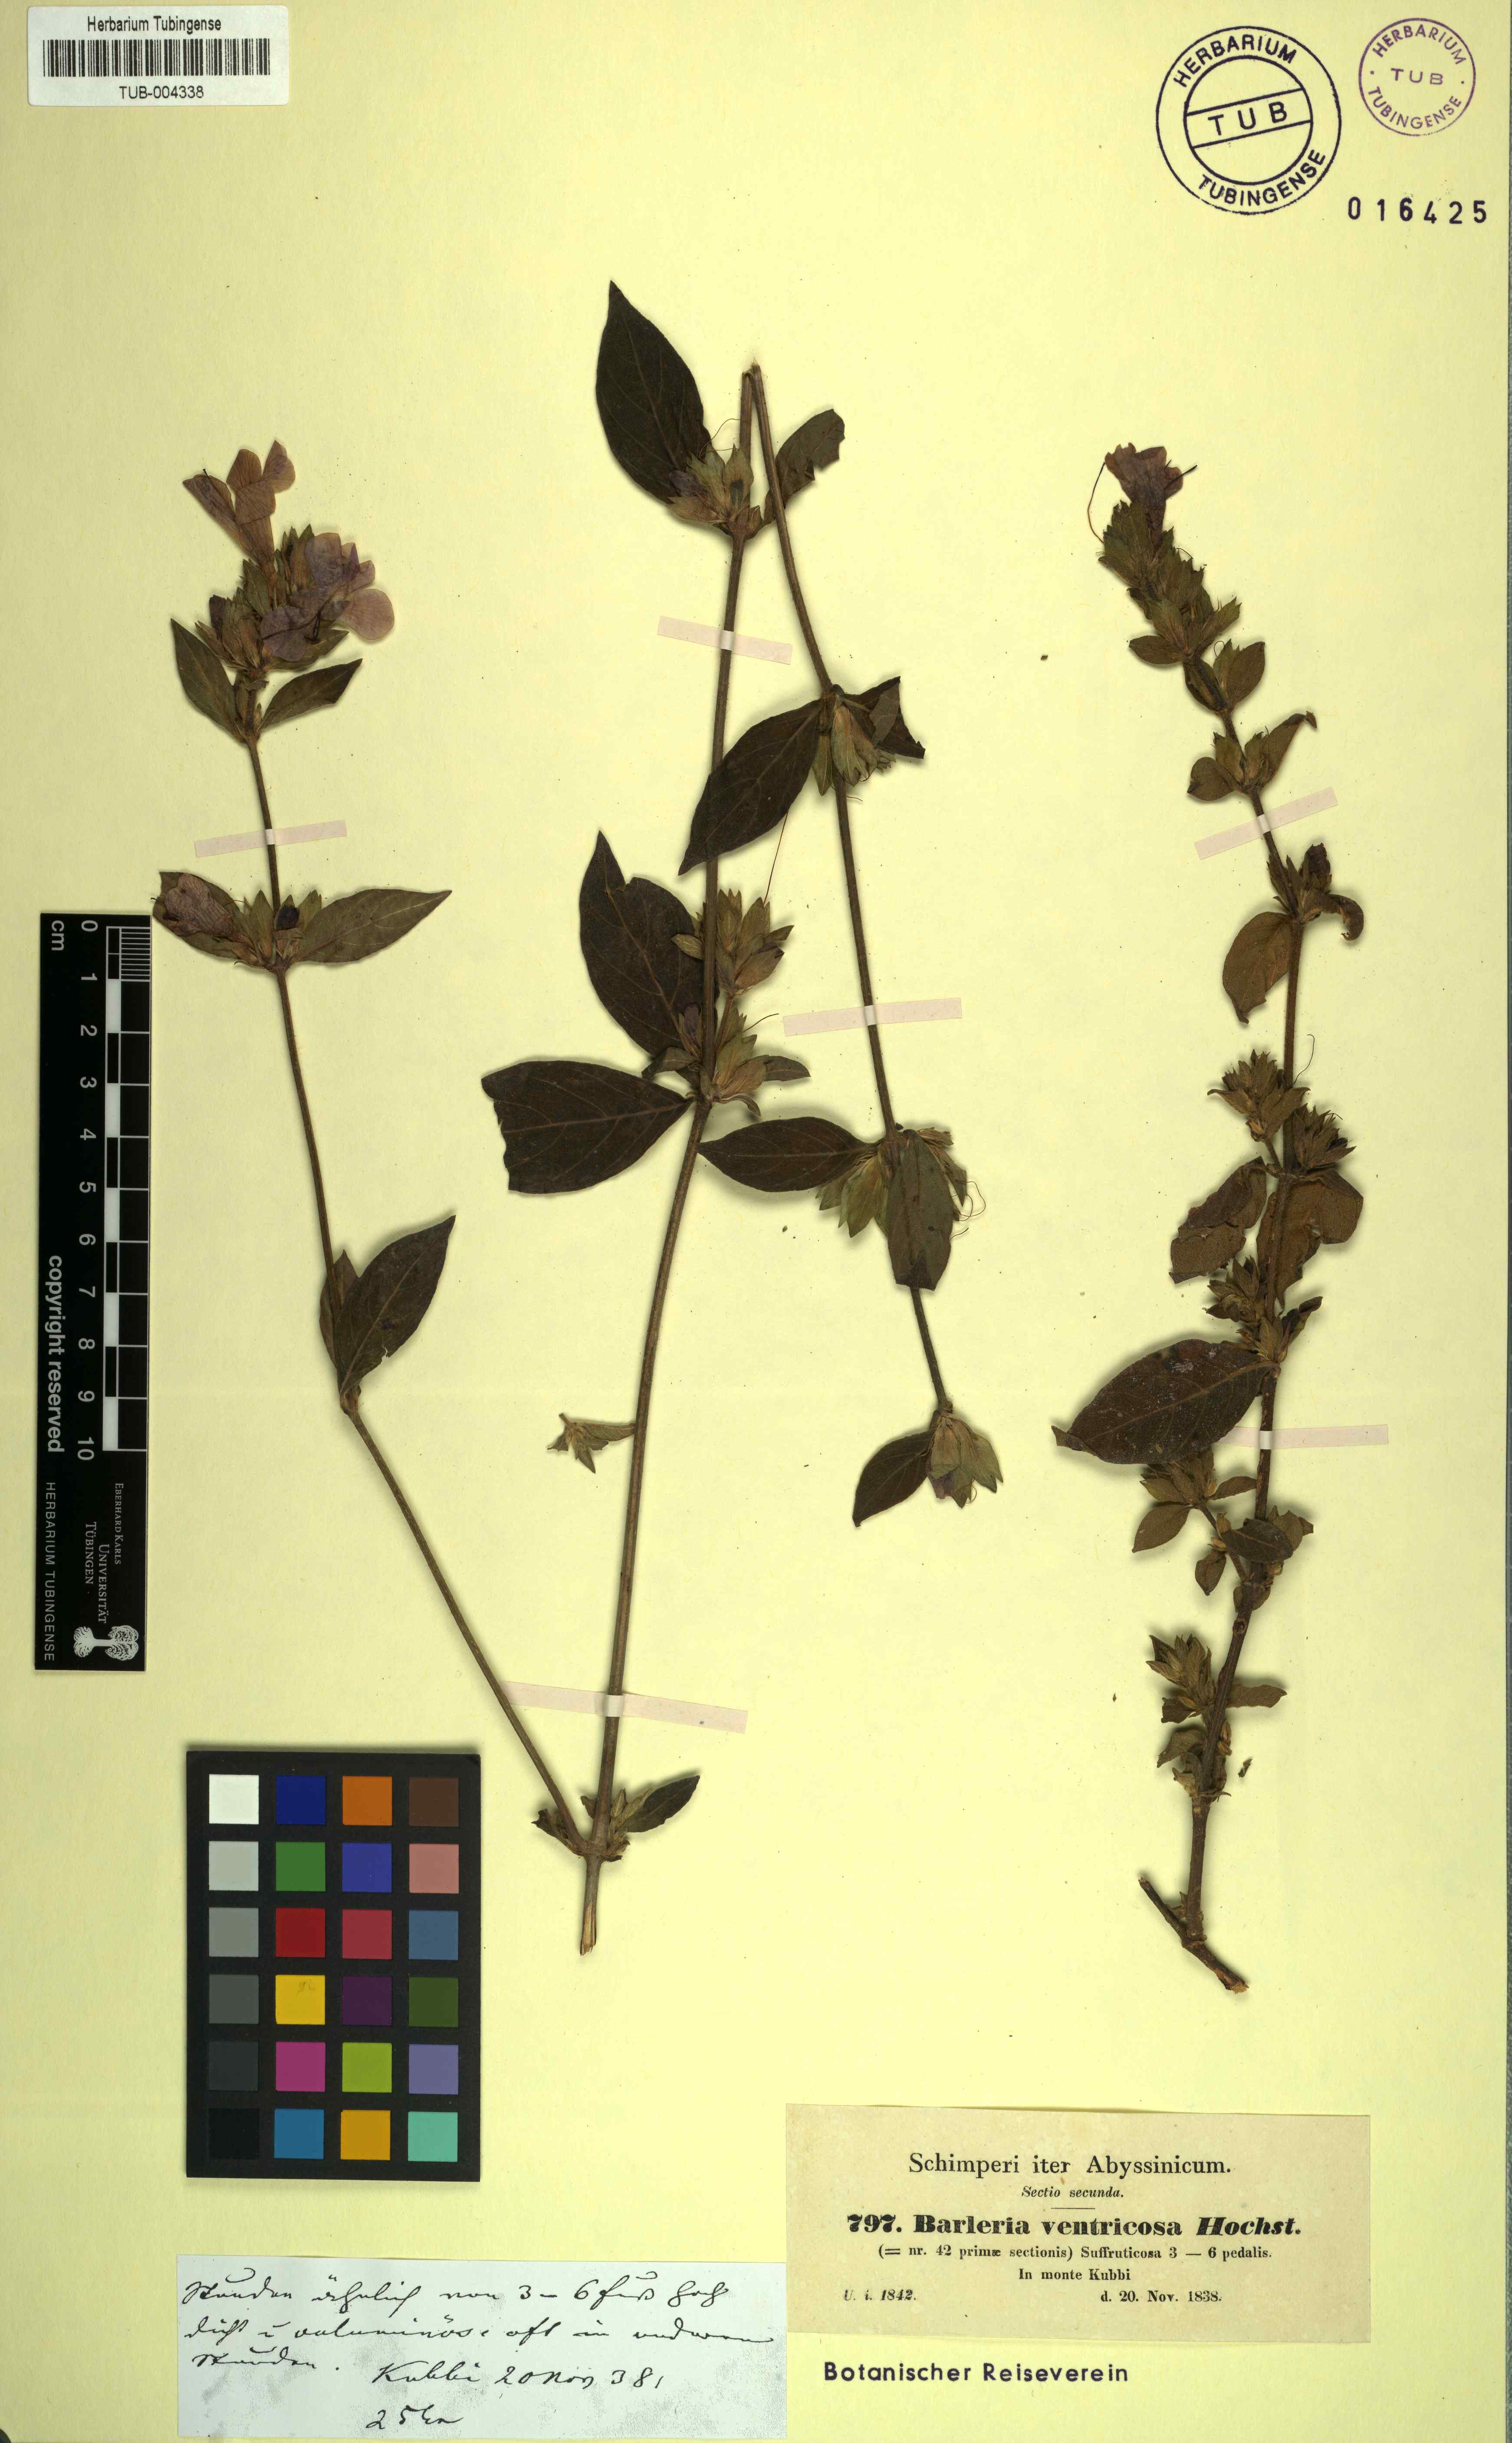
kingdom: Plantae
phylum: Tracheophyta
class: Magnoliopsida
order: Lamiales
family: Acanthaceae
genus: Barleria
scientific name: Barleria ventricosa
